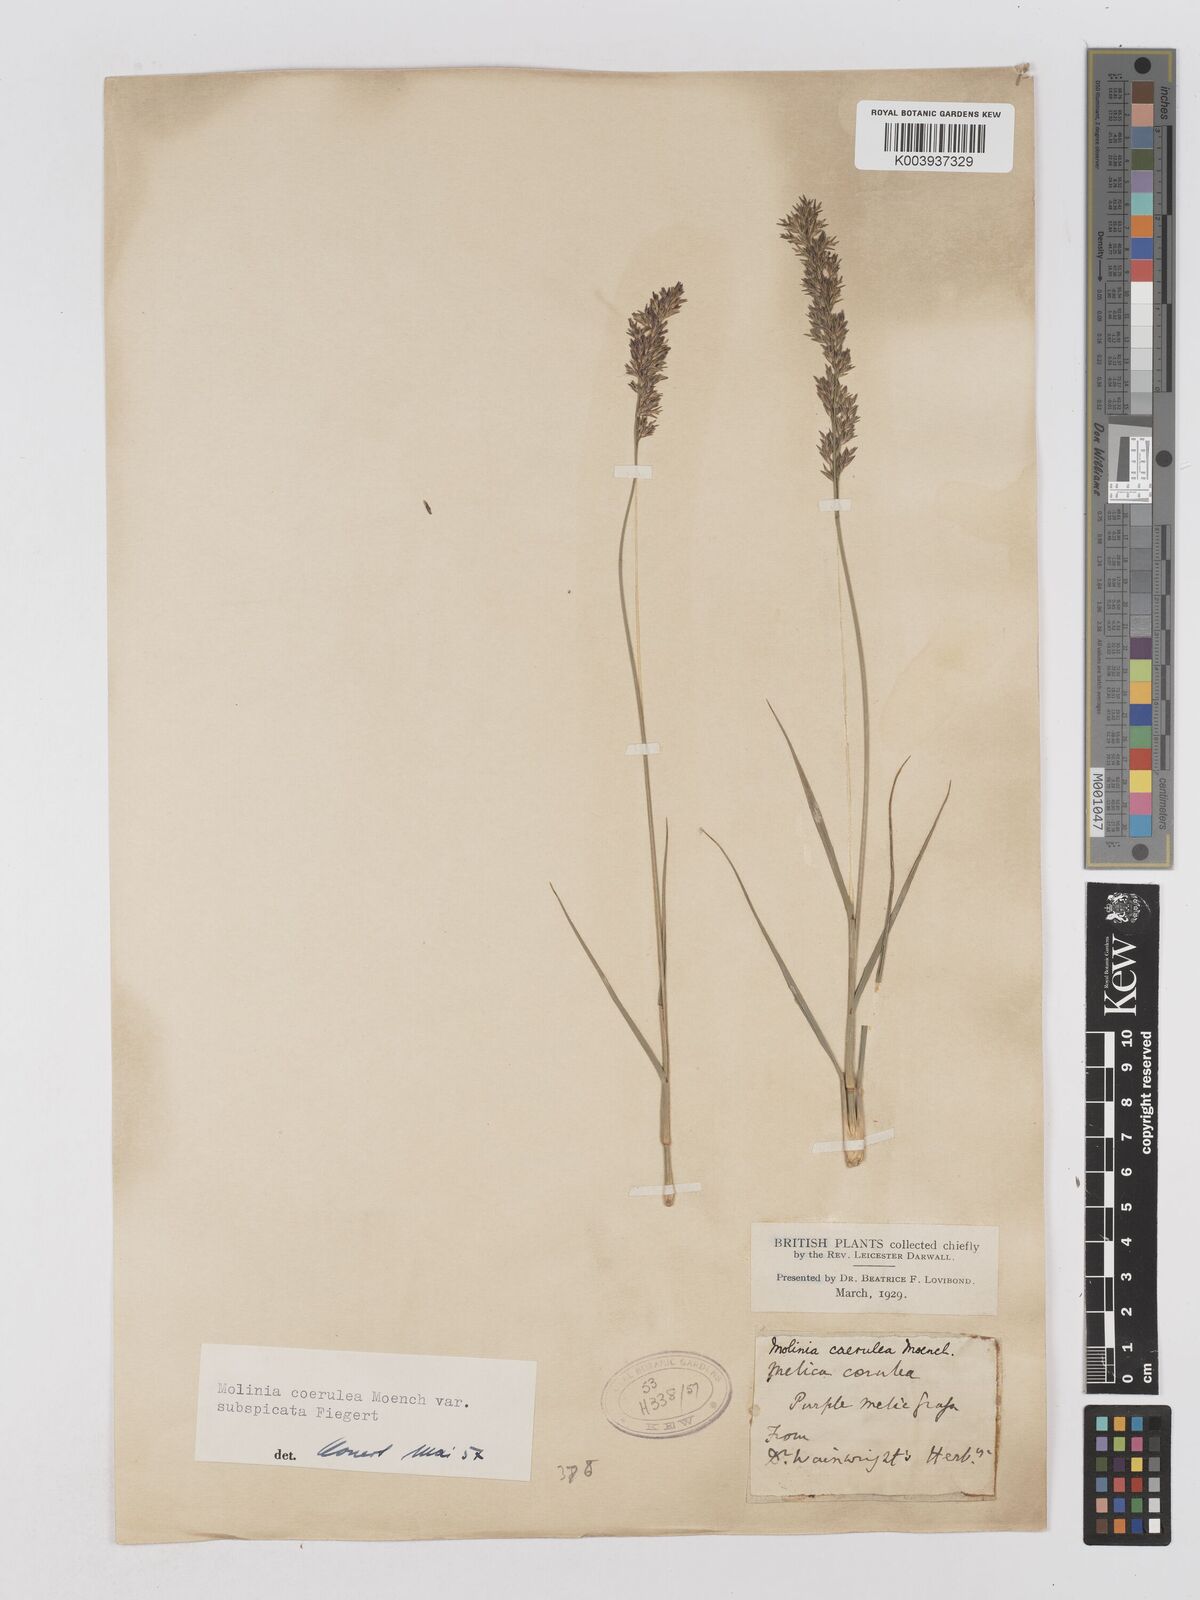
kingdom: Plantae
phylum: Tracheophyta
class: Liliopsida
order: Poales
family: Poaceae
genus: Molinia
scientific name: Molinia caerulea
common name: Purple moor-grass
